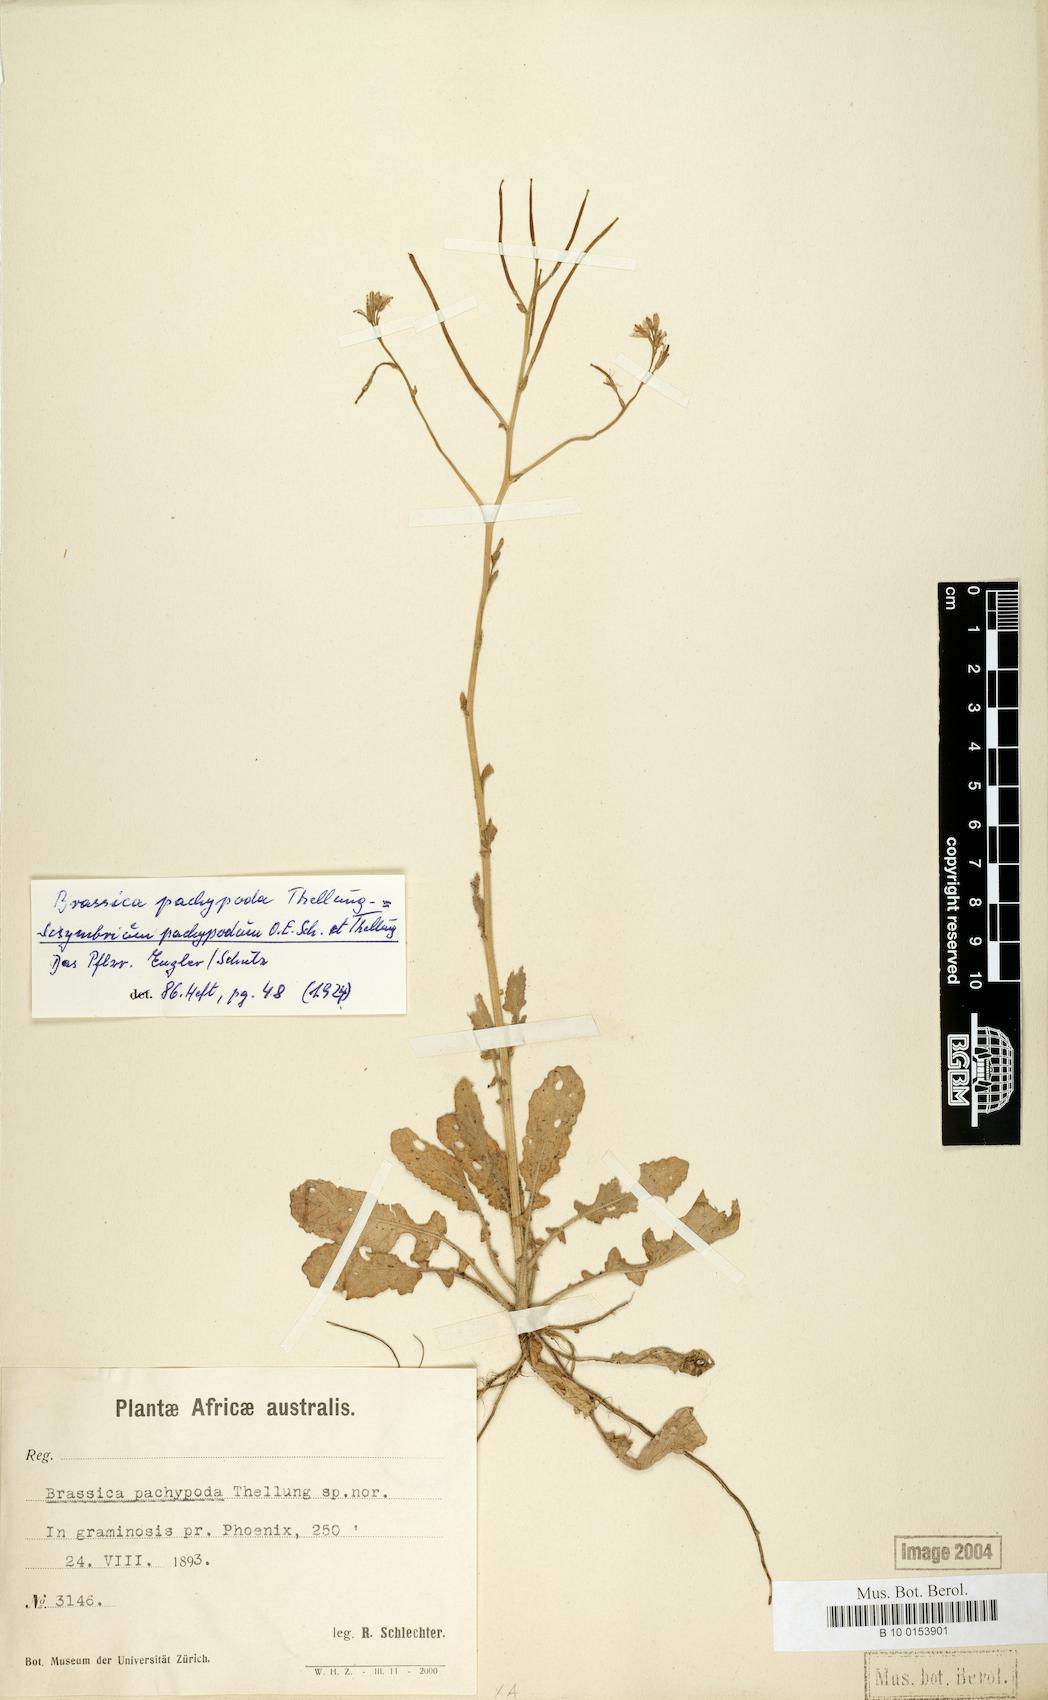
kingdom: Plantae
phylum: Tracheophyta
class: Magnoliopsida
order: Brassicales
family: Brassicaceae
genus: Erucastrum
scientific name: Erucastrum austroafricanum
